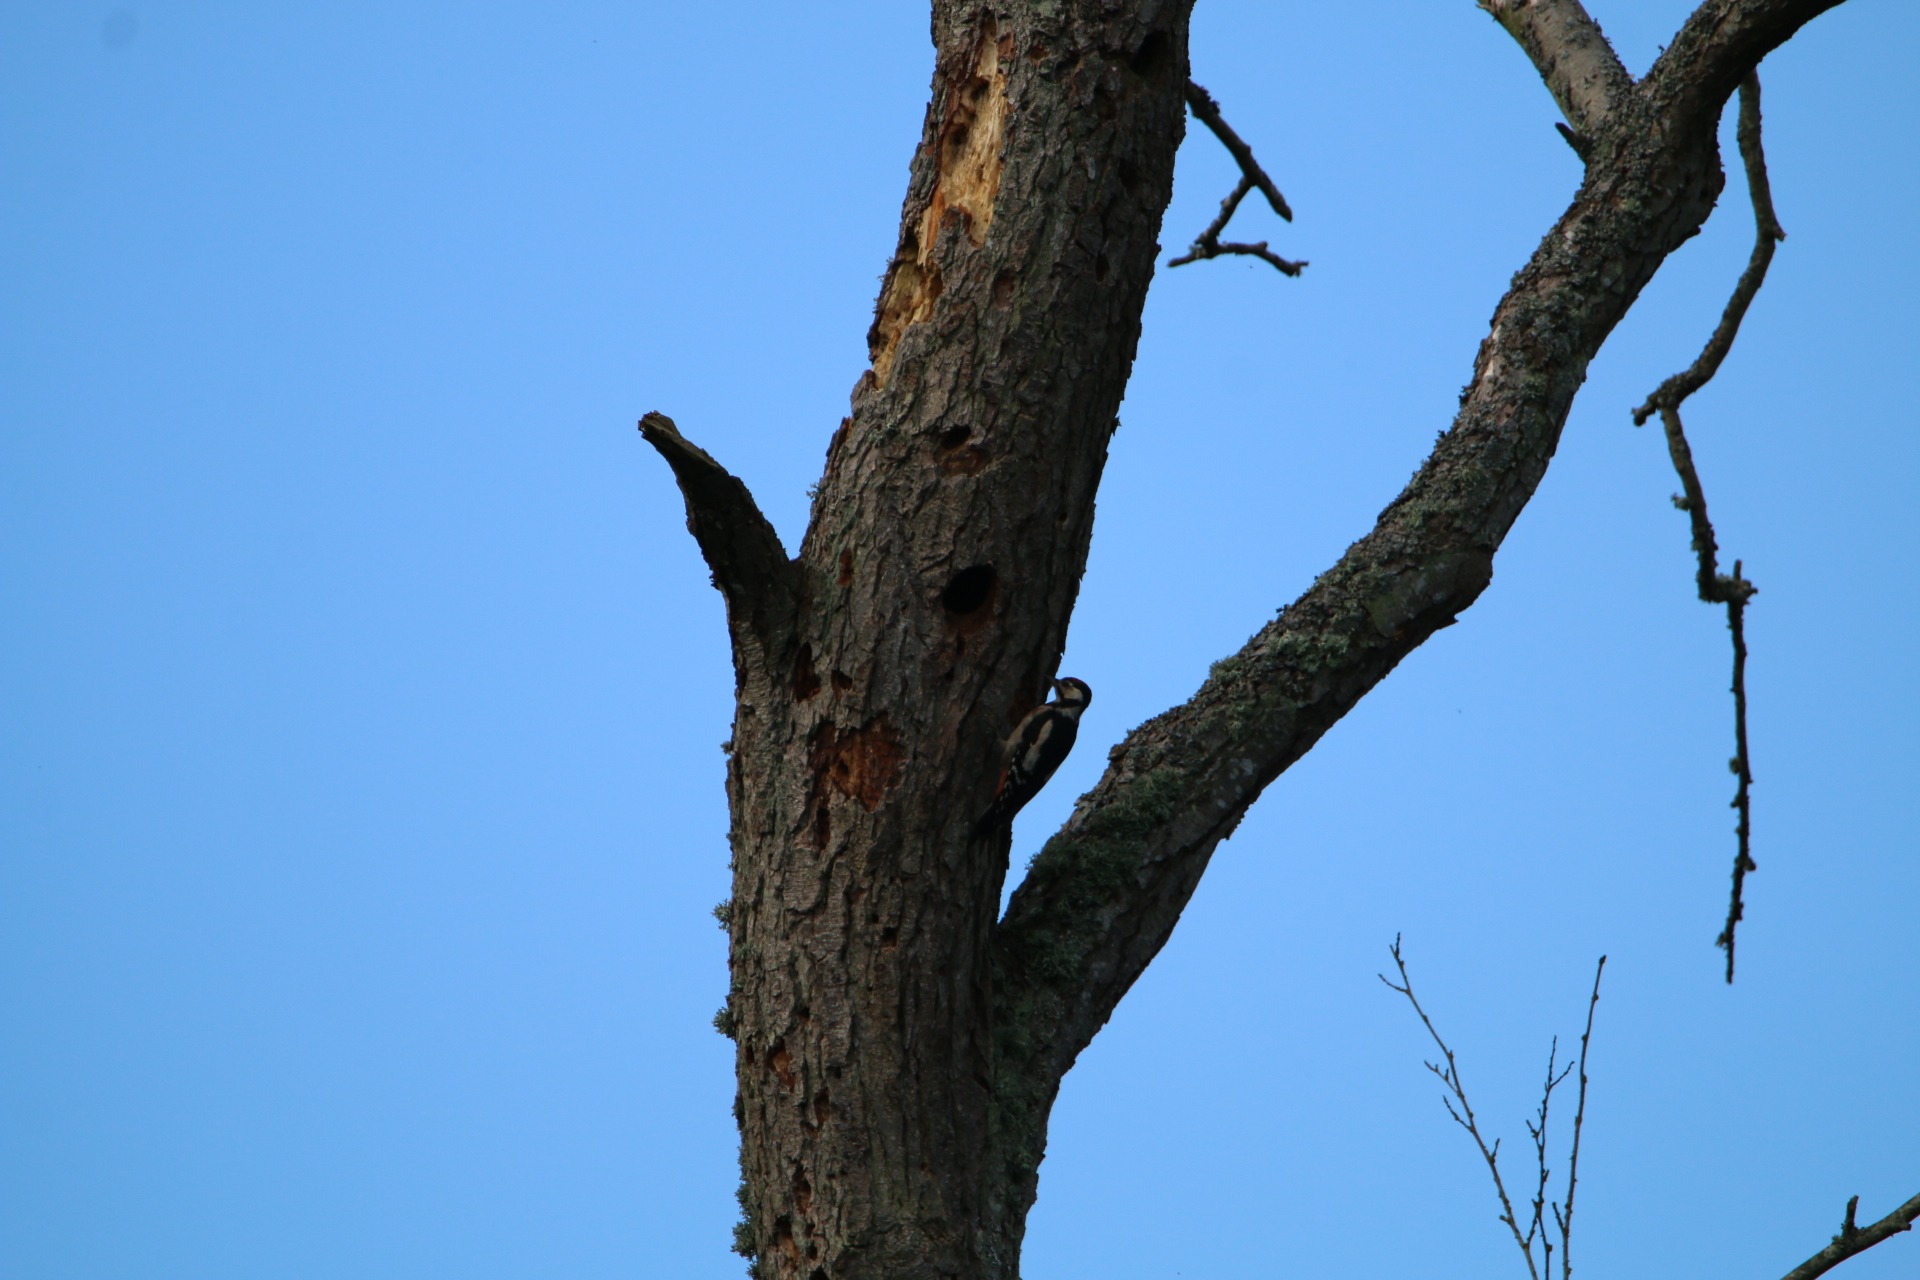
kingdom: Animalia
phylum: Chordata
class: Aves
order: Piciformes
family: Picidae
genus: Dendrocopos
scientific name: Dendrocopos major
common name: Stor flagspætte
